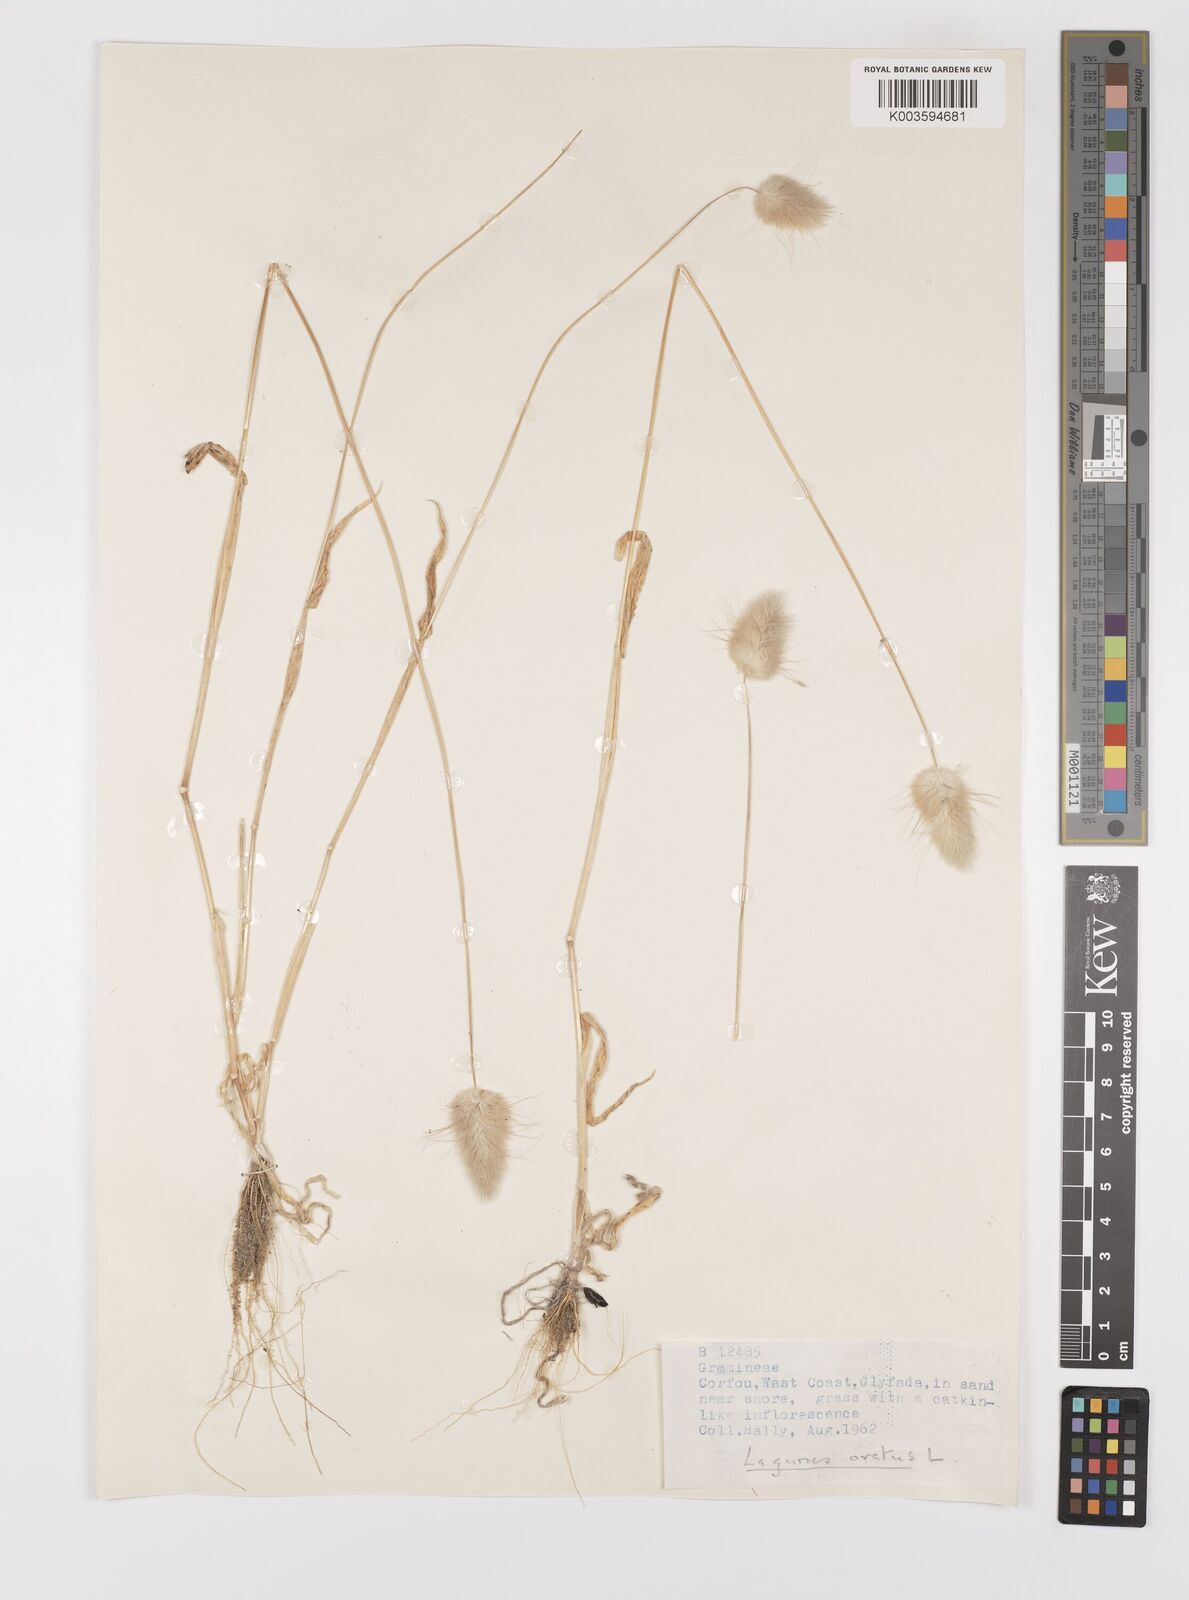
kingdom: Plantae
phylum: Tracheophyta
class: Liliopsida
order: Poales
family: Poaceae
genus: Lagurus
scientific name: Lagurus ovatus
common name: Hare's-tail
